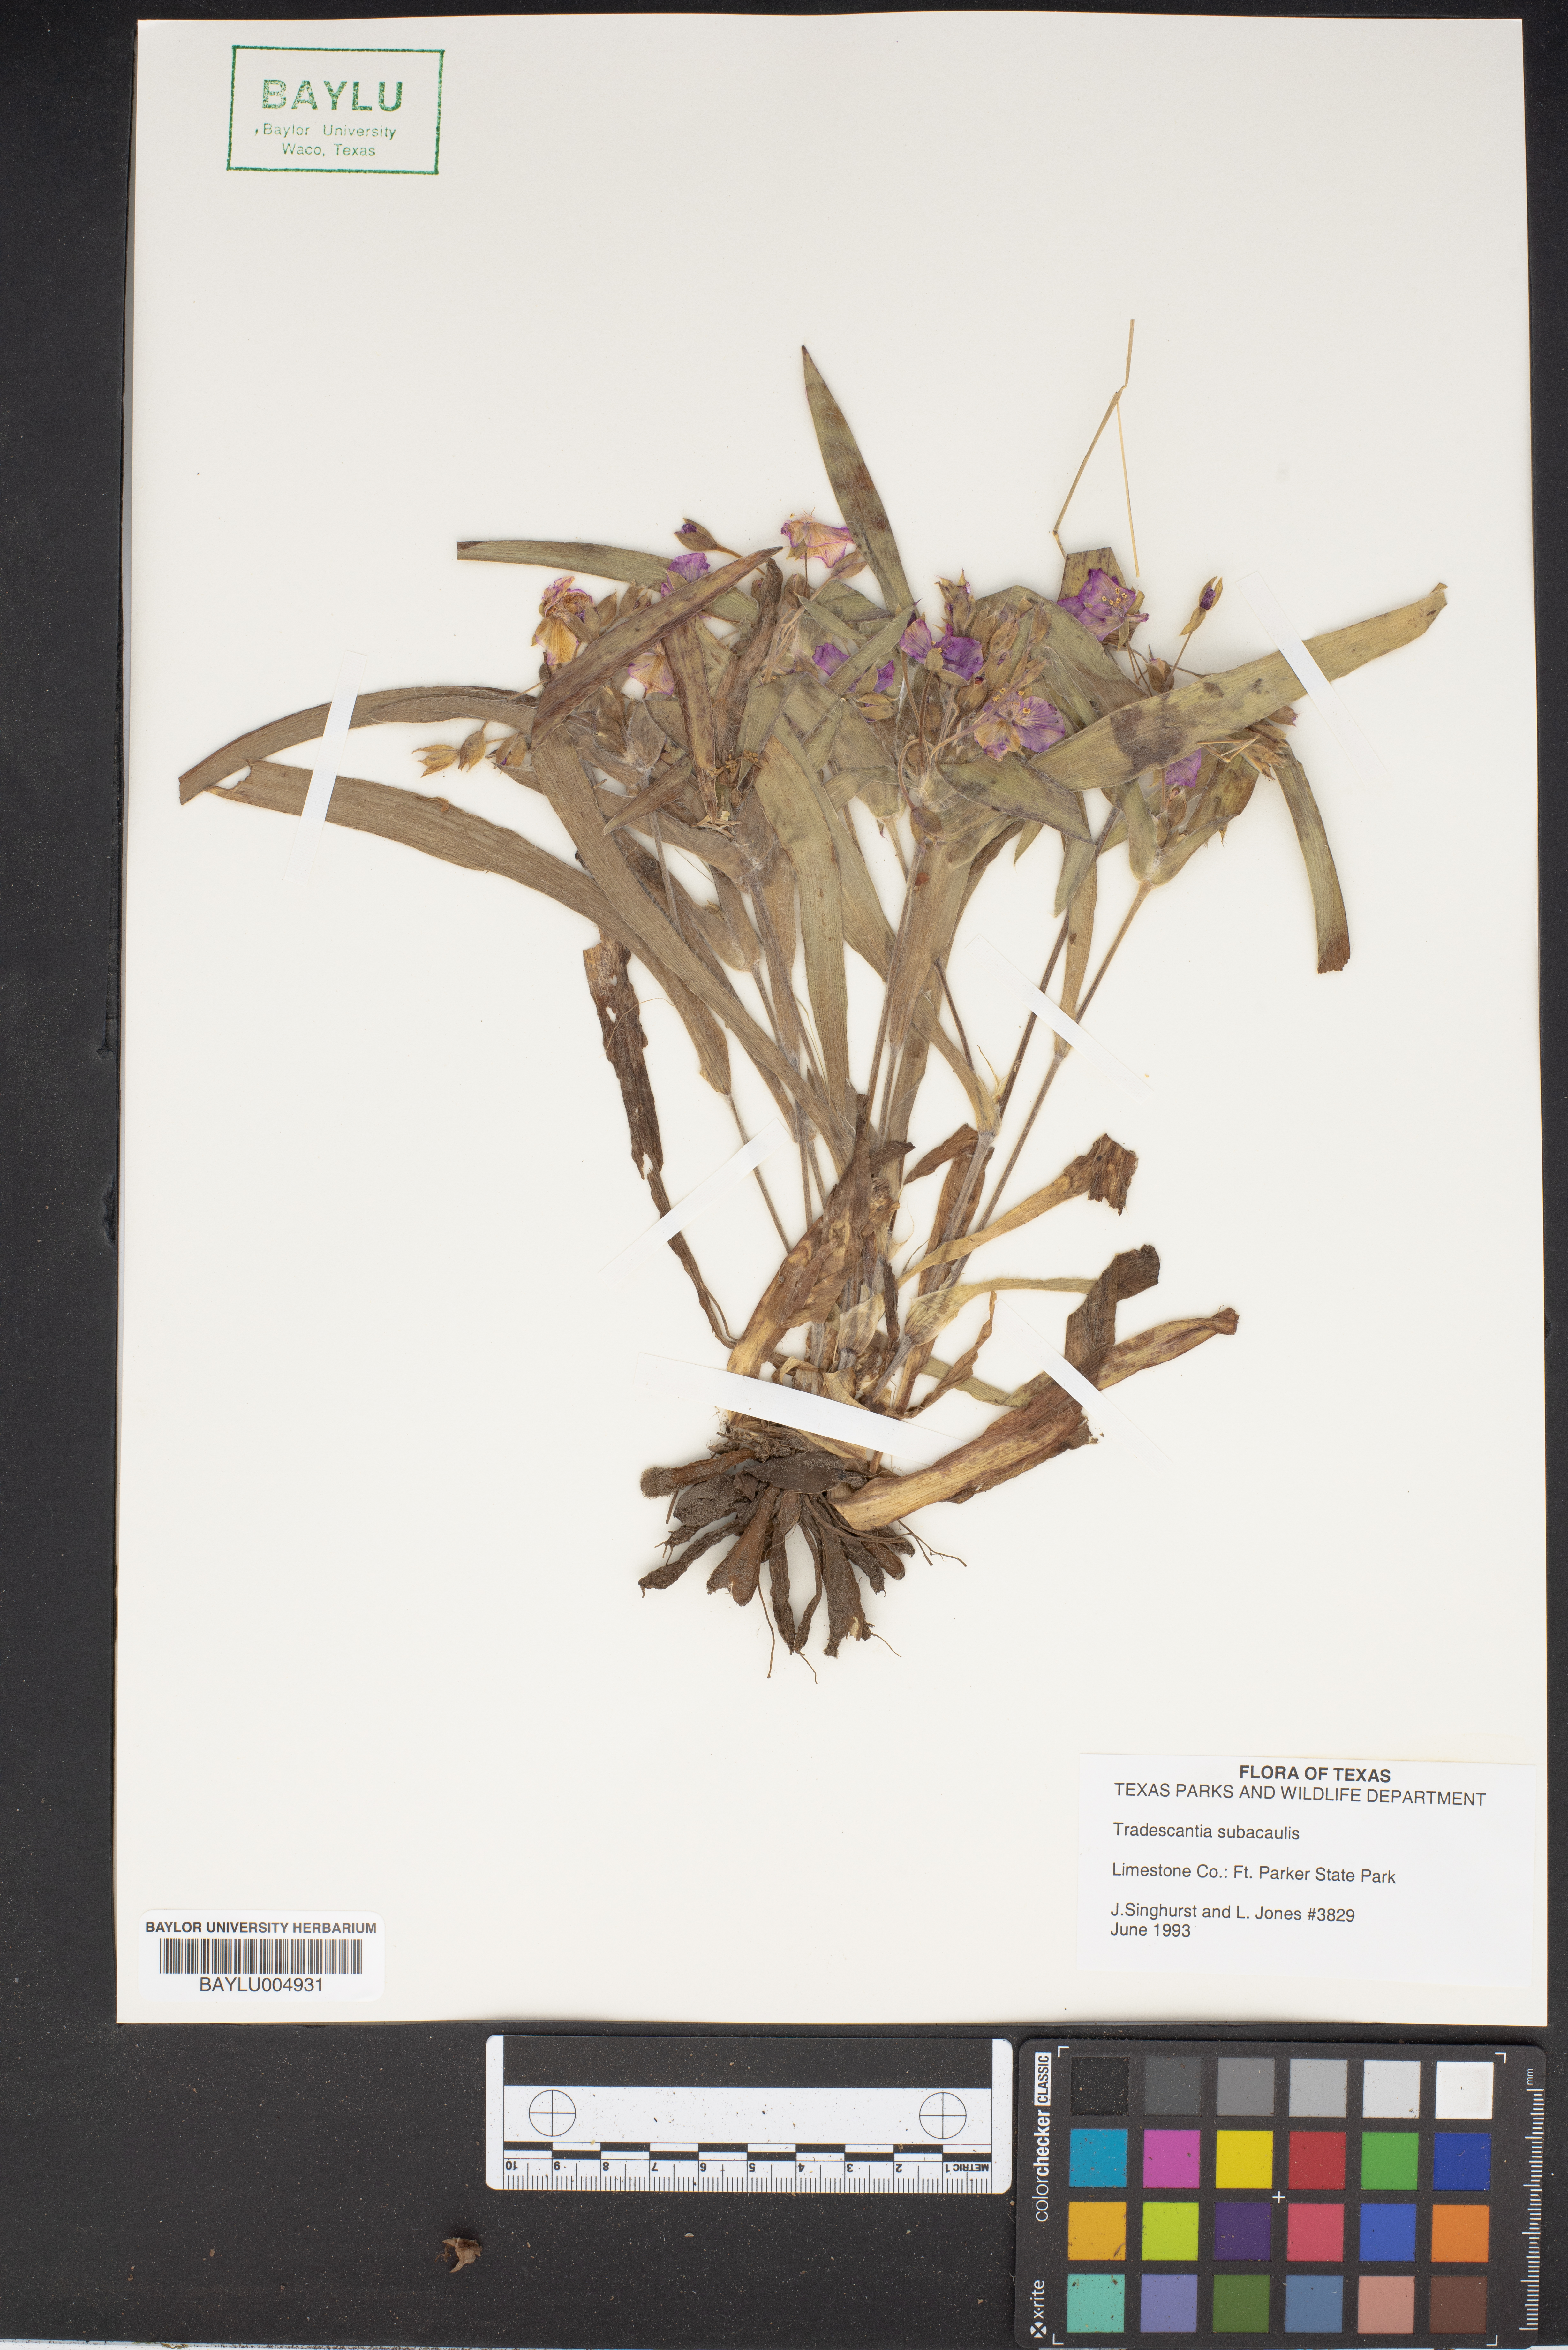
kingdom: Plantae
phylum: Tracheophyta
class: Liliopsida
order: Commelinales
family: Commelinaceae
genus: Tradescantia
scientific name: Tradescantia subacaulis
